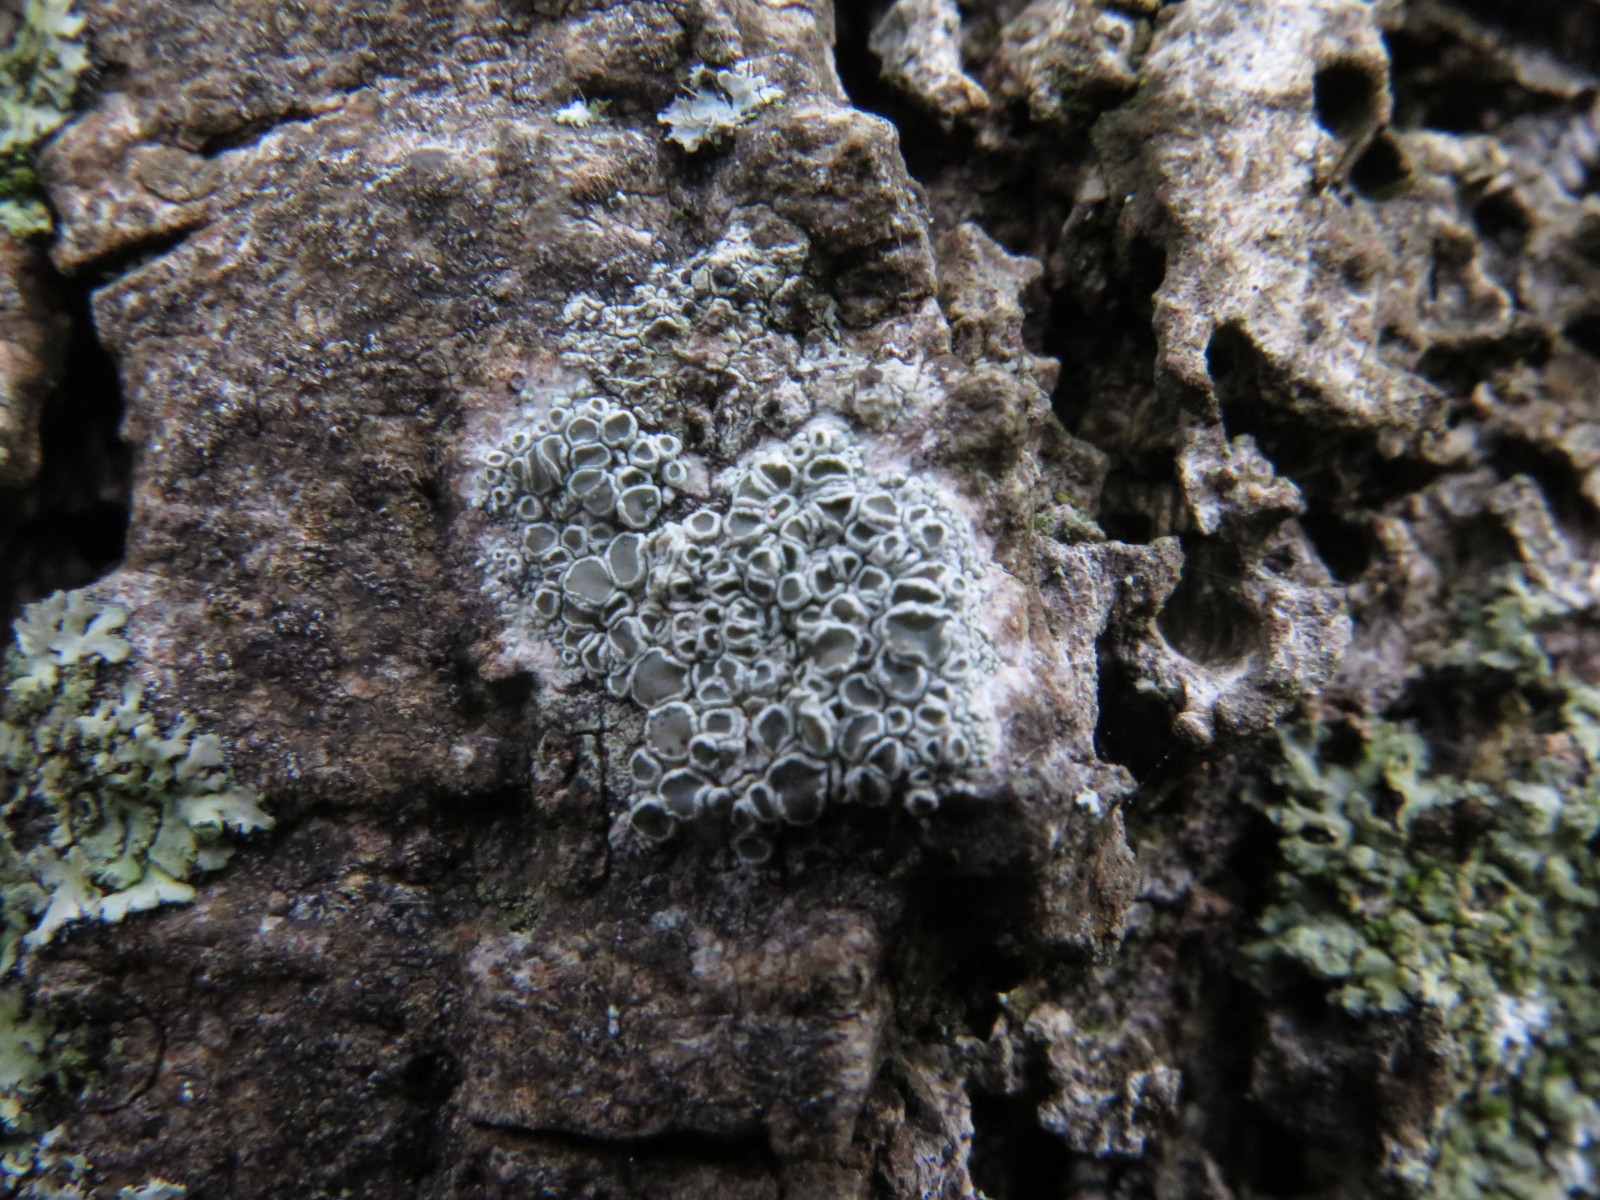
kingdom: Fungi
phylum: Ascomycota
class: Lecanoromycetes
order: Lecanorales
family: Lecanoraceae
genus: Lecanora
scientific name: Lecanora chlarotera
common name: brun kantskivelav
